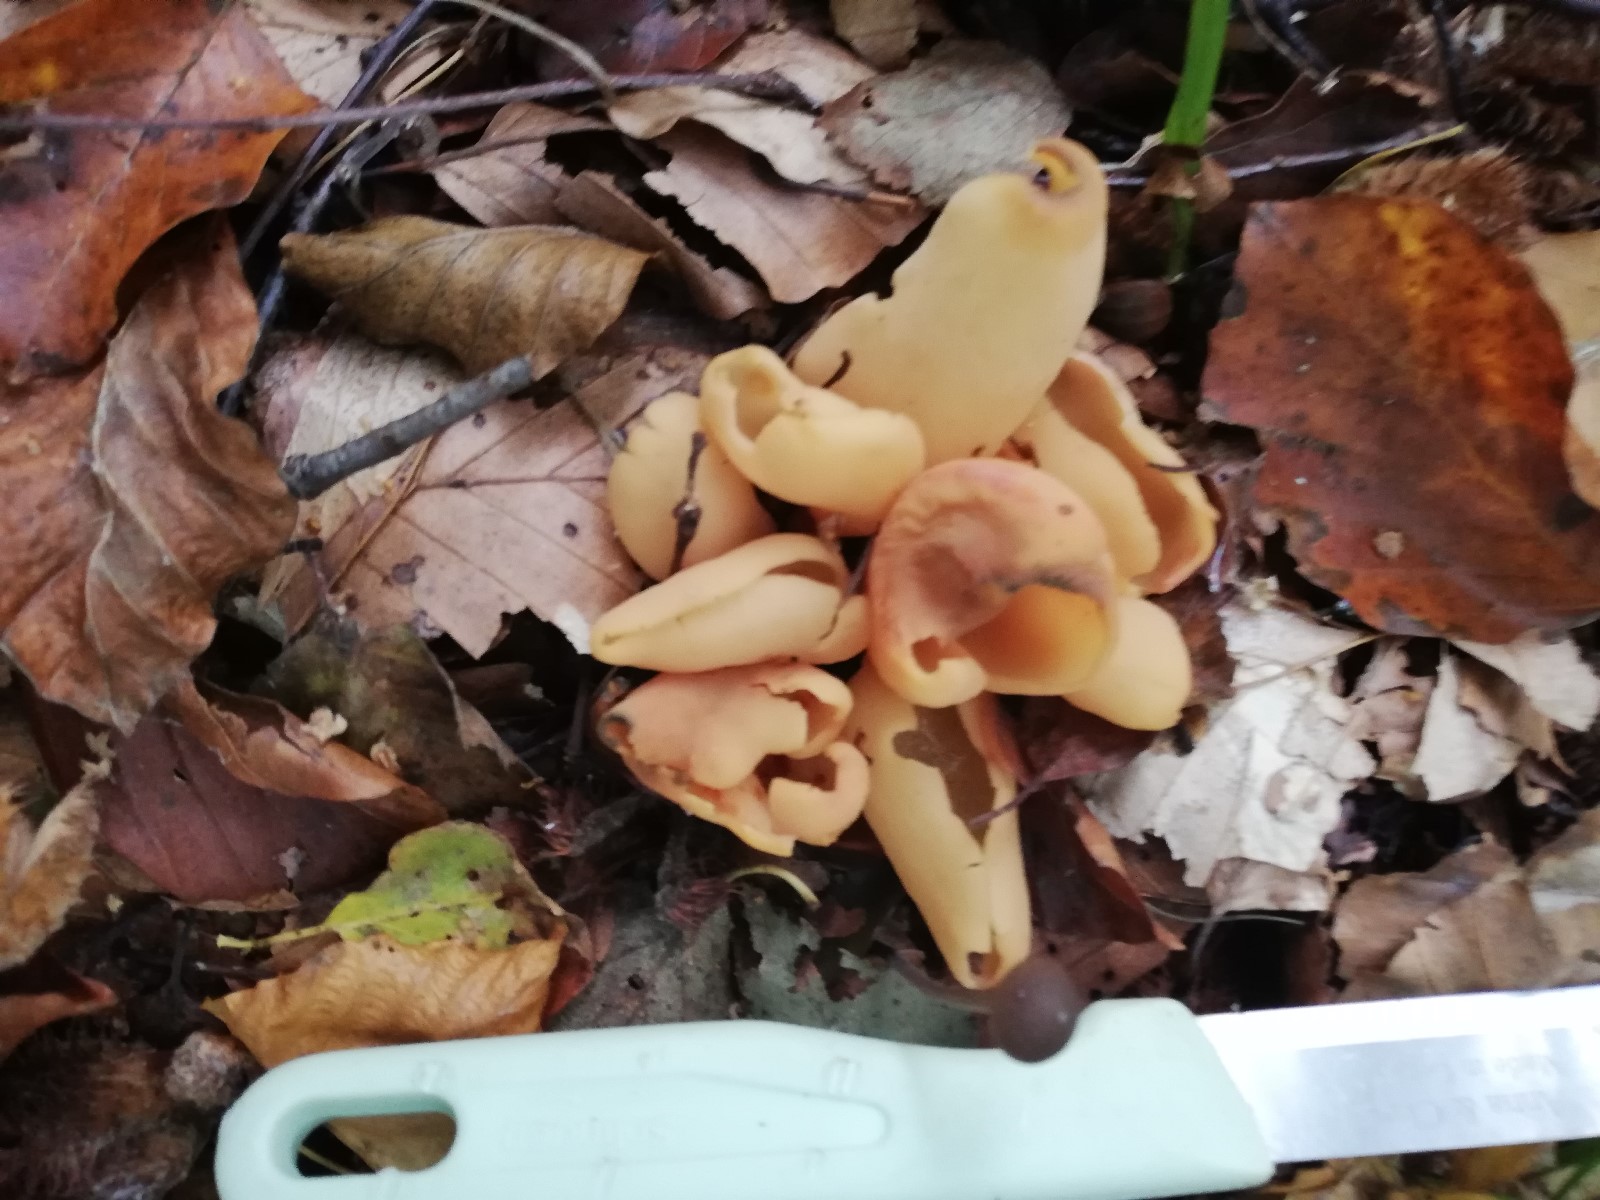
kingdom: Fungi
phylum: Ascomycota
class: Pezizomycetes
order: Pezizales
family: Otideaceae
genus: Otidea
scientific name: Otidea onotica
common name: æsel-ørebæger
